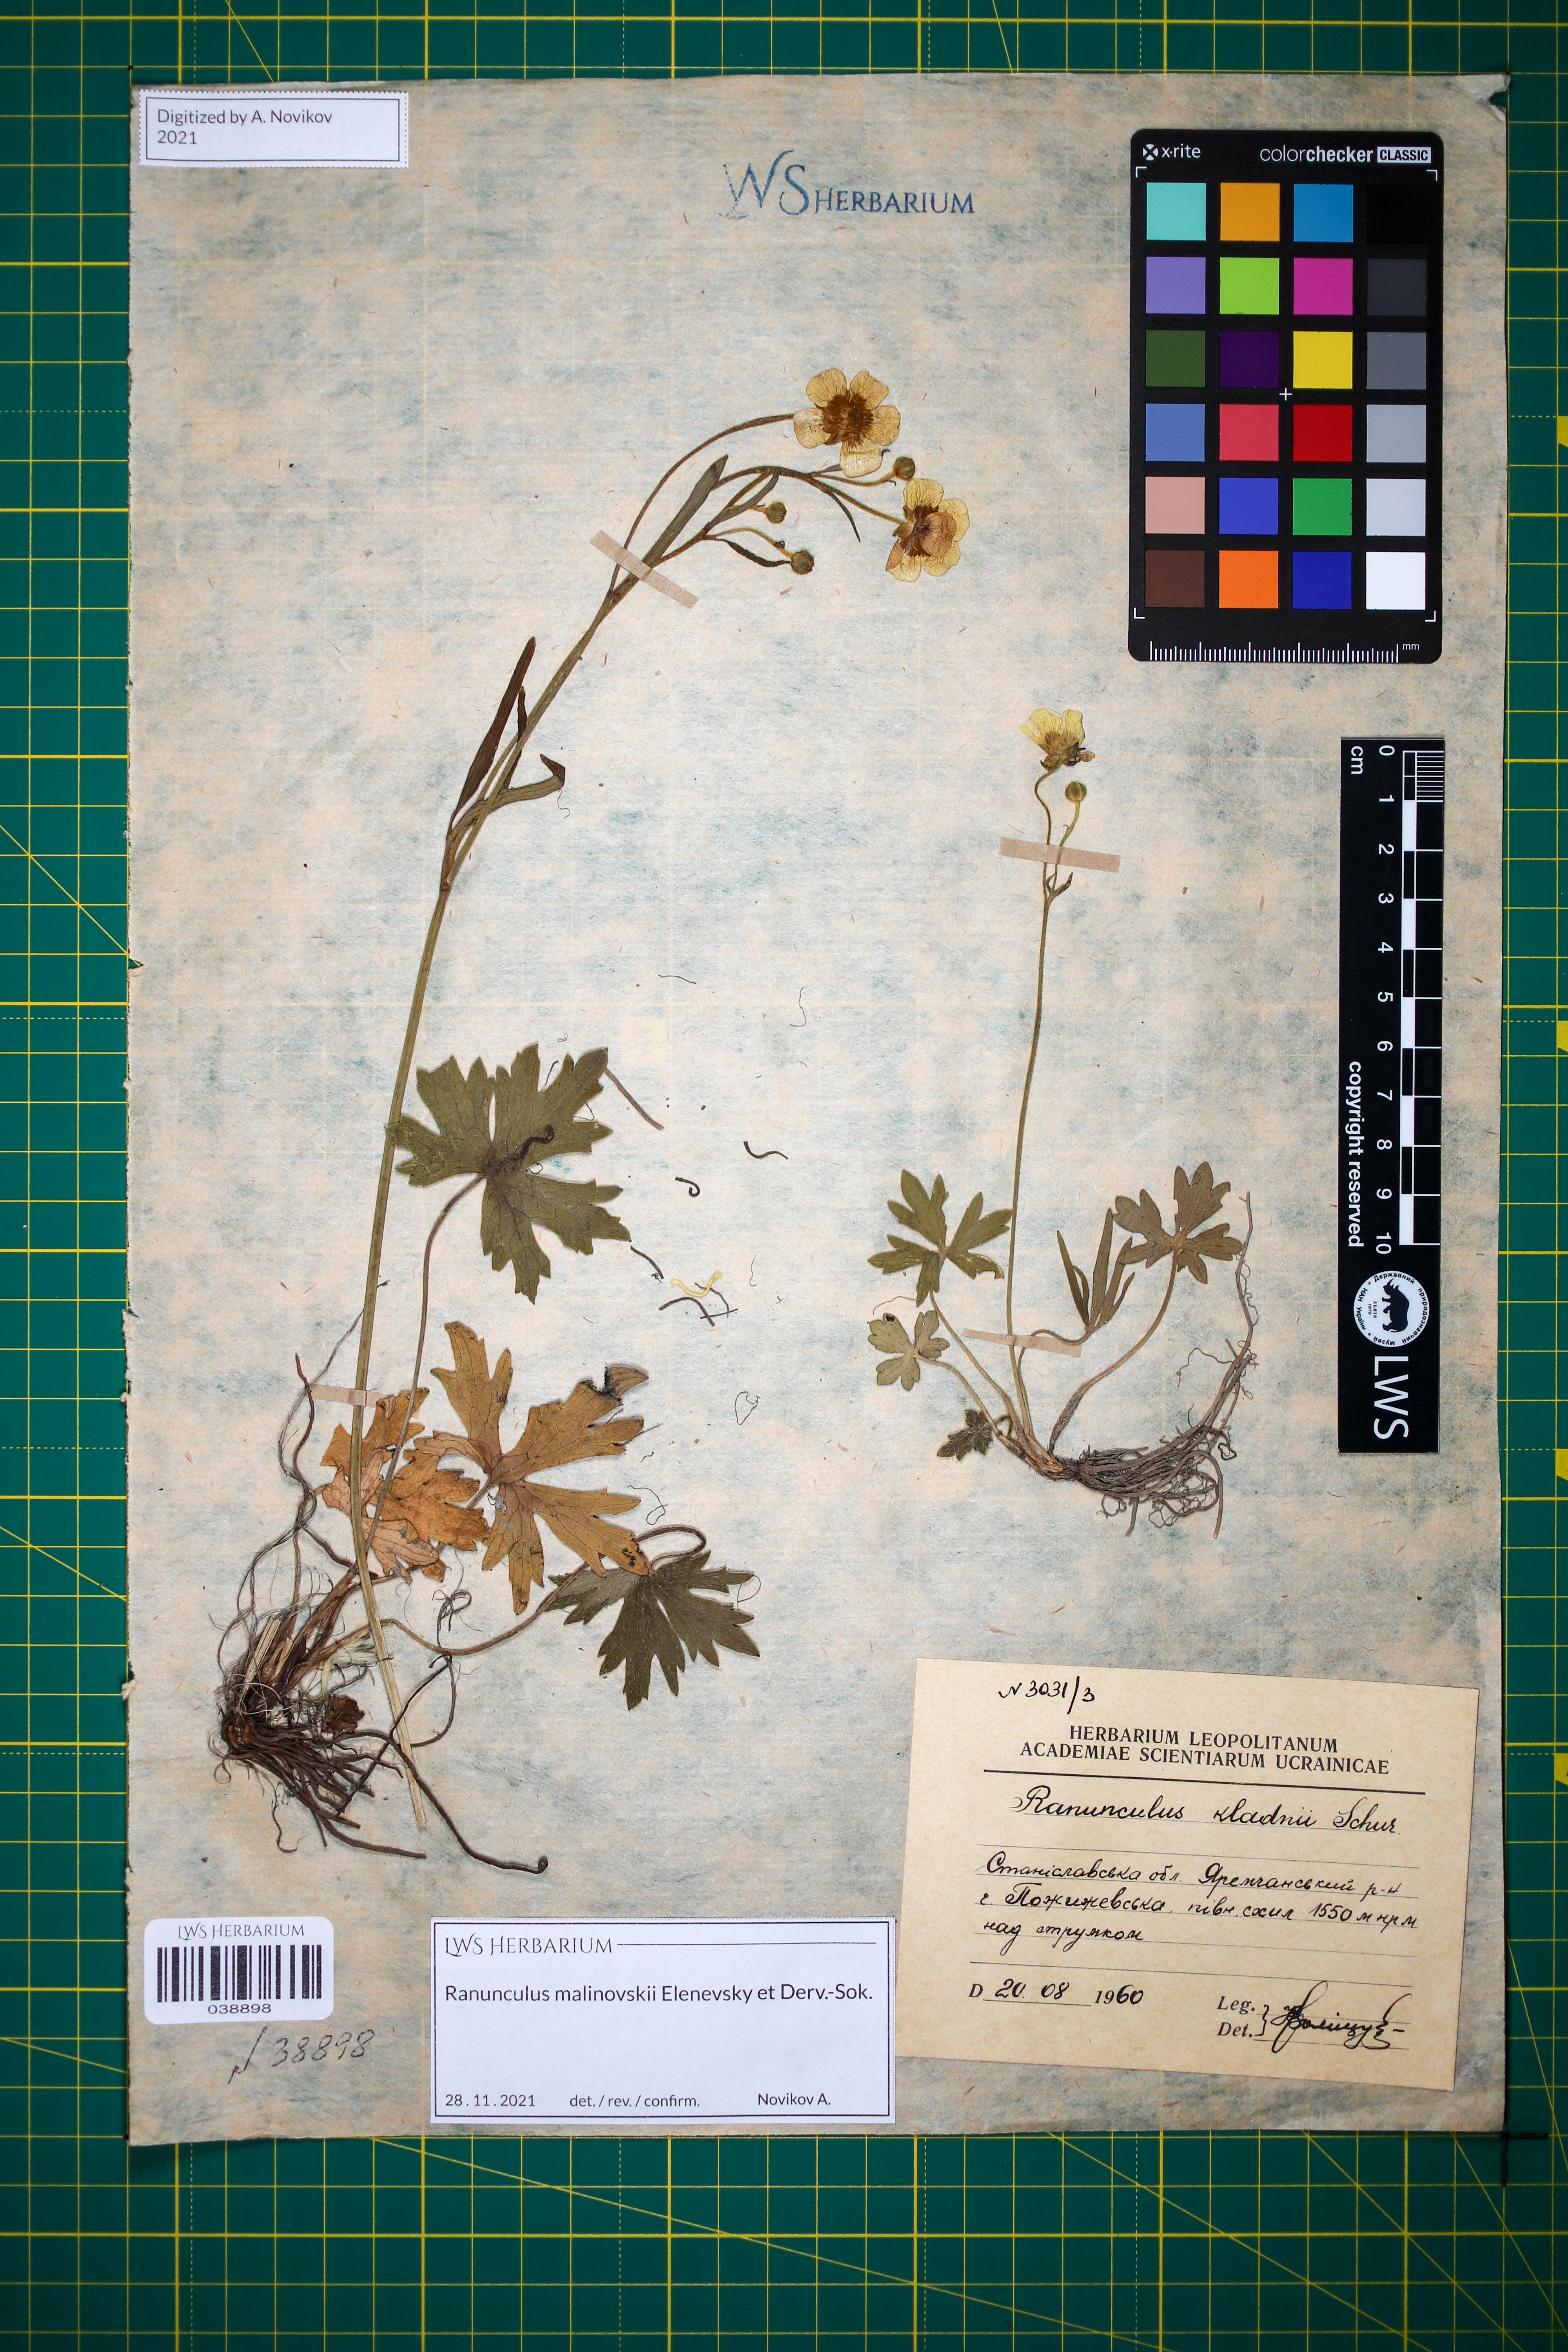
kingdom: Plantae
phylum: Tracheophyta
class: Magnoliopsida
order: Ranunculales
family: Ranunculaceae
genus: Ranunculus
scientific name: Ranunculus malinovskii
